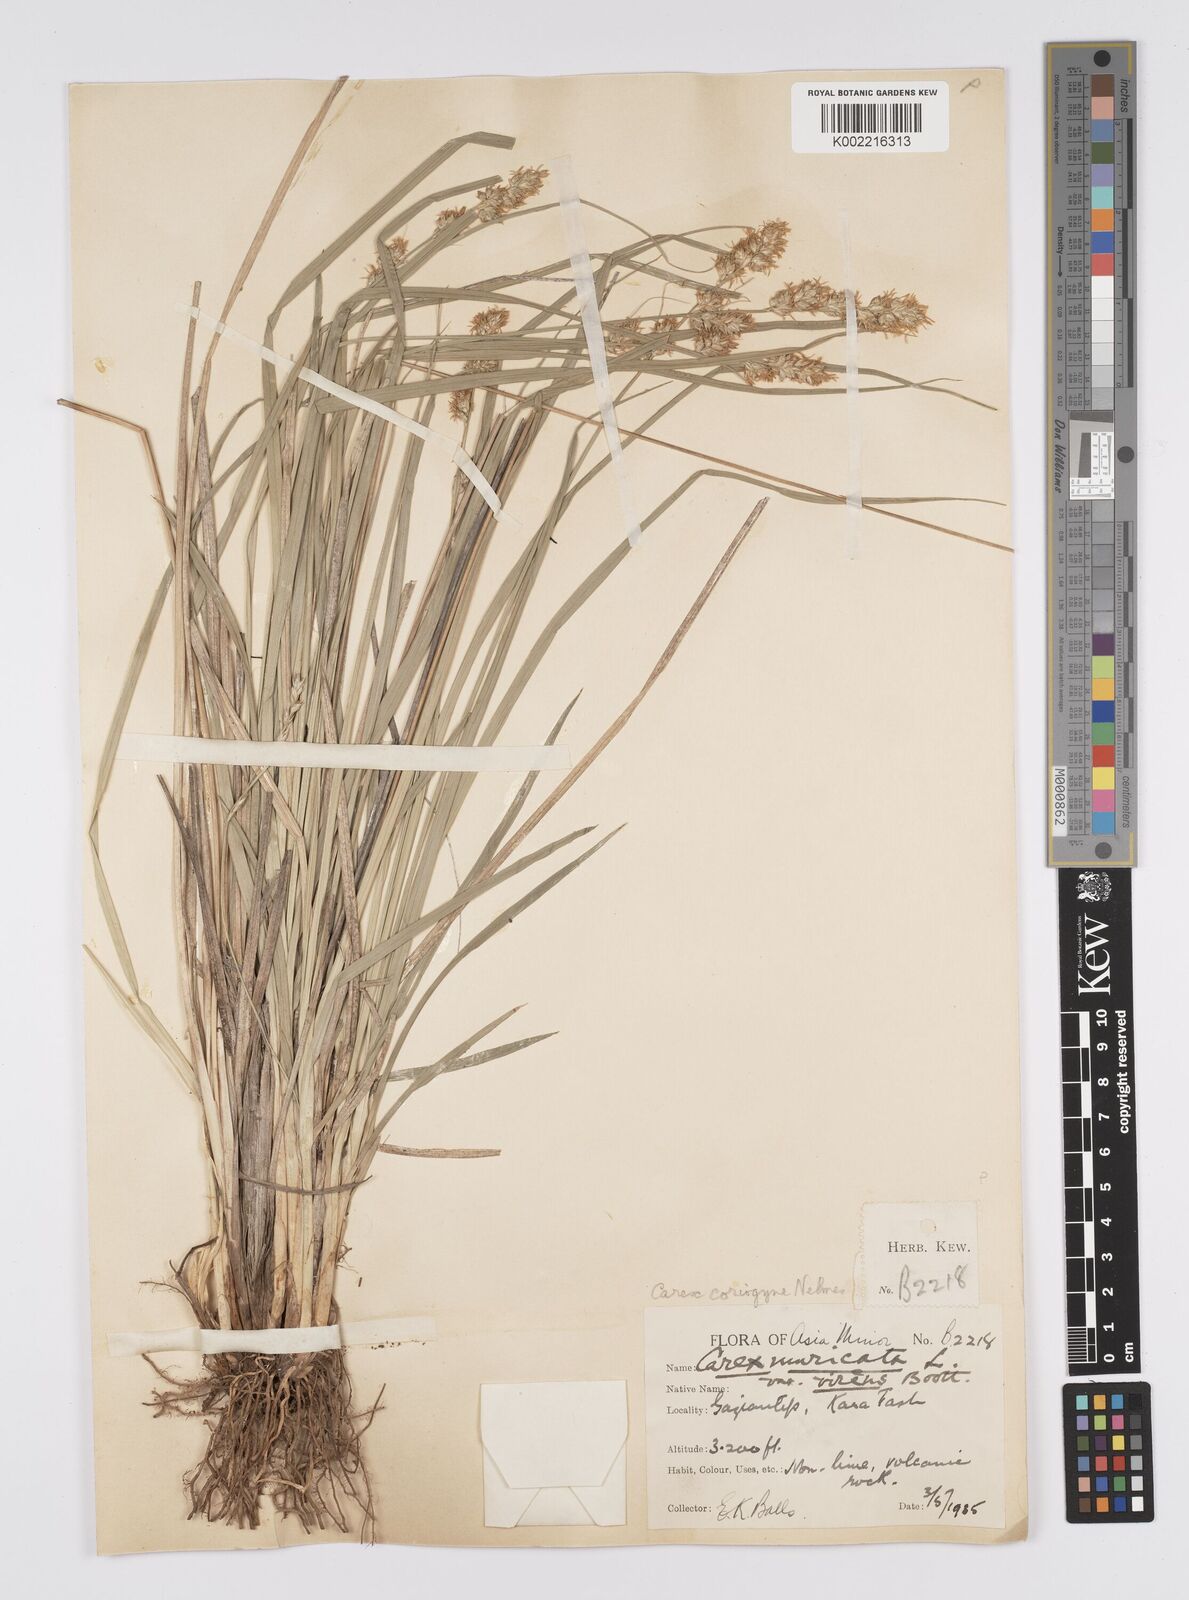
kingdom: Plantae
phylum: Tracheophyta
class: Liliopsida
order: Poales
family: Cyperaceae
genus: Carex
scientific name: Carex coriogyne
